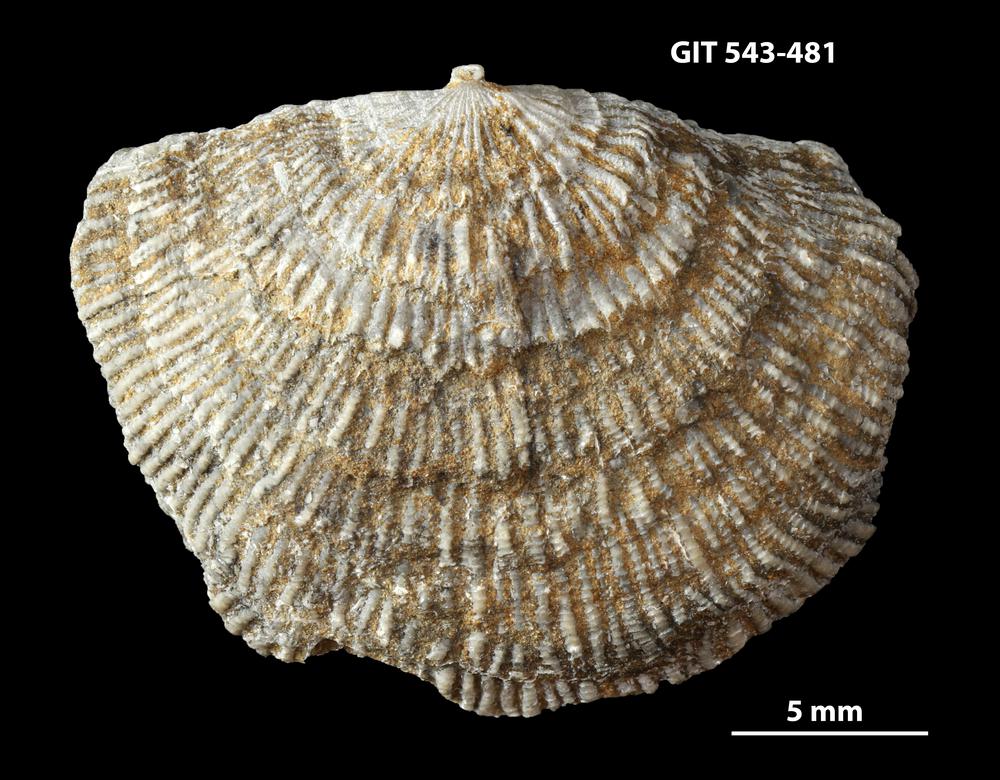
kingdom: Animalia
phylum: Brachiopoda
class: Rhynchonellata
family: Clitambonitidae
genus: Clitambonites
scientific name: Clitambonites squamatus
